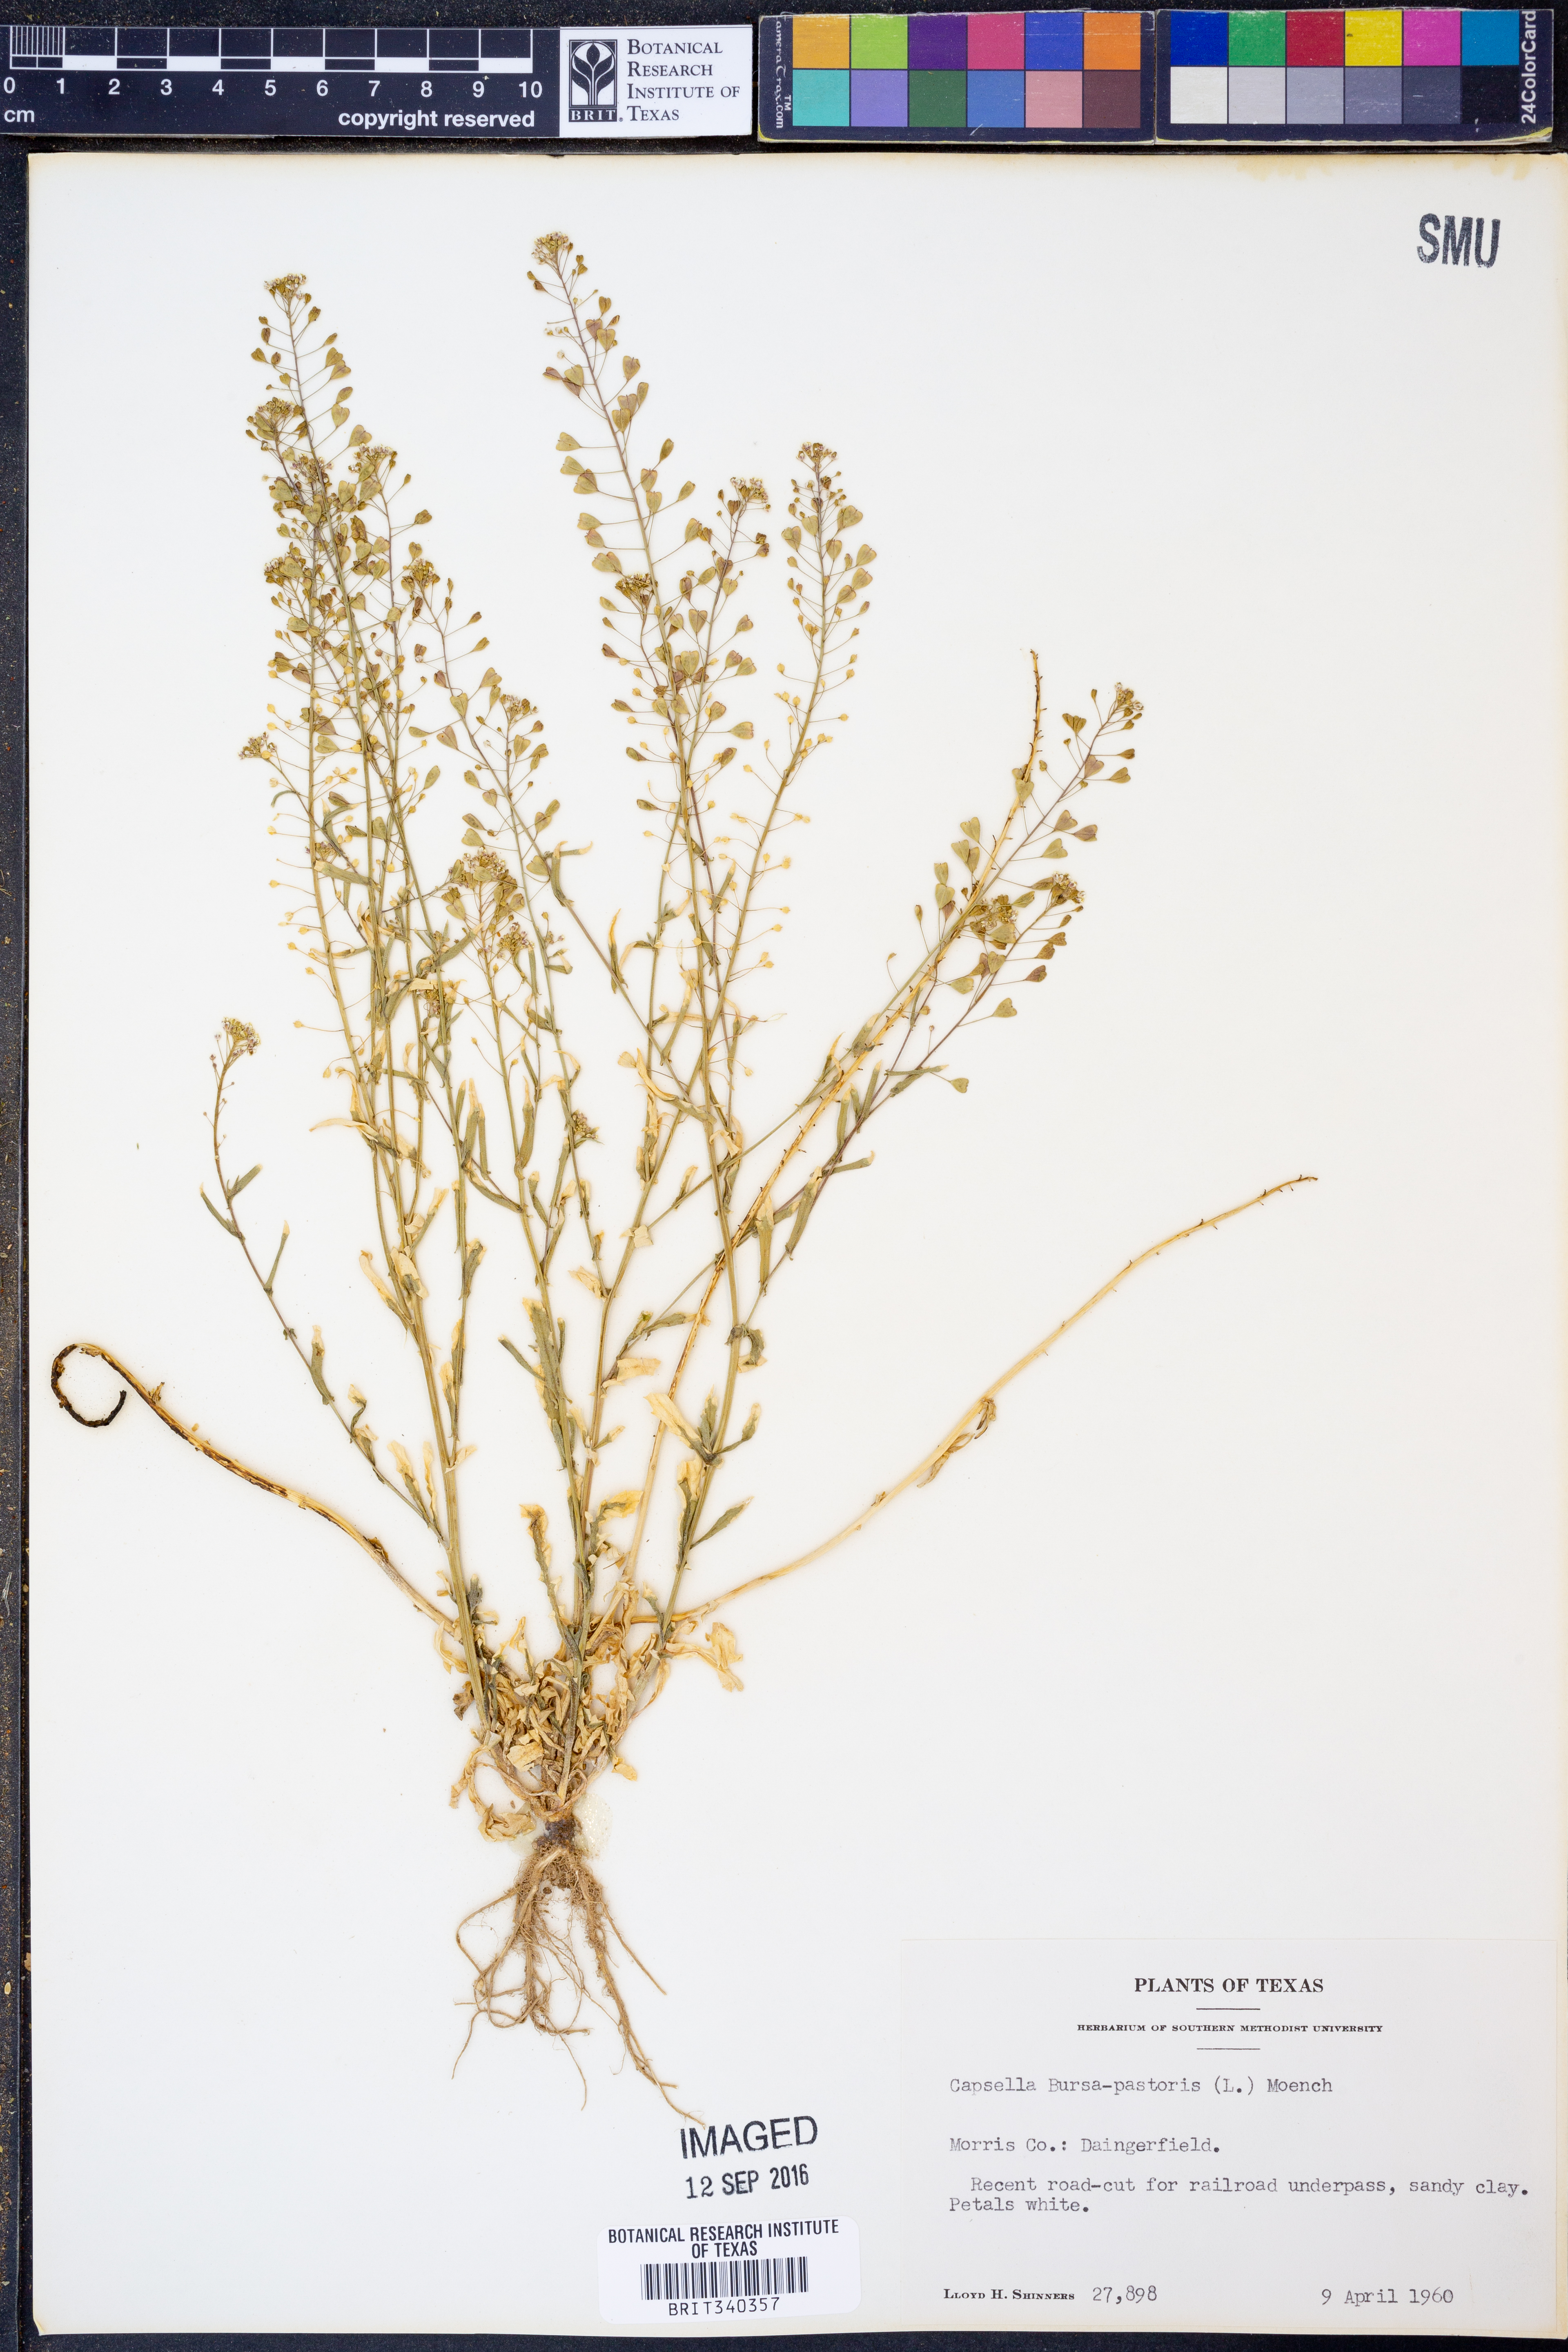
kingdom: Plantae
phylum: Tracheophyta
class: Magnoliopsida
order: Brassicales
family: Brassicaceae
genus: Capsella
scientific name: Capsella bursa-pastoris
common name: Shepherd's purse
